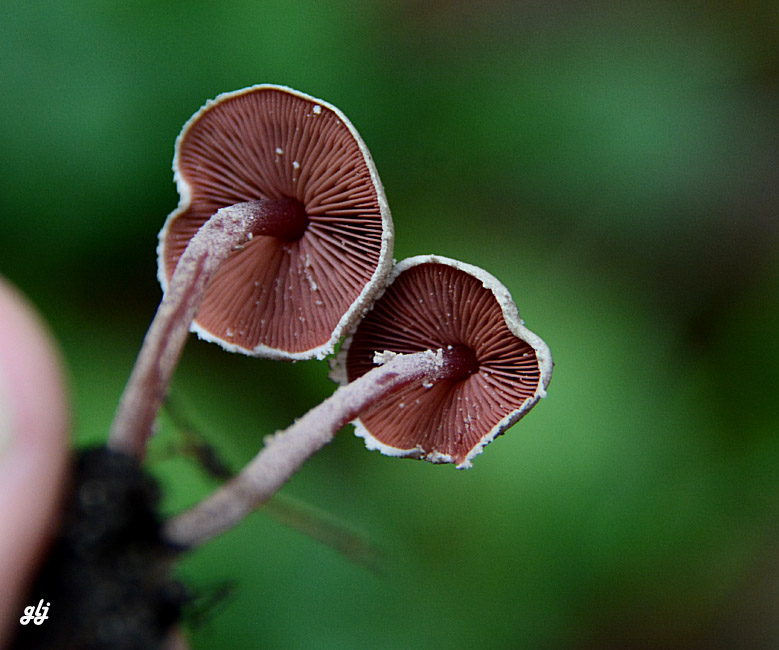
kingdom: Fungi
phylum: Basidiomycota
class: Agaricomycetes
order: Agaricales
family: Agaricaceae
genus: Melanophyllum
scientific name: Melanophyllum haematospermum
